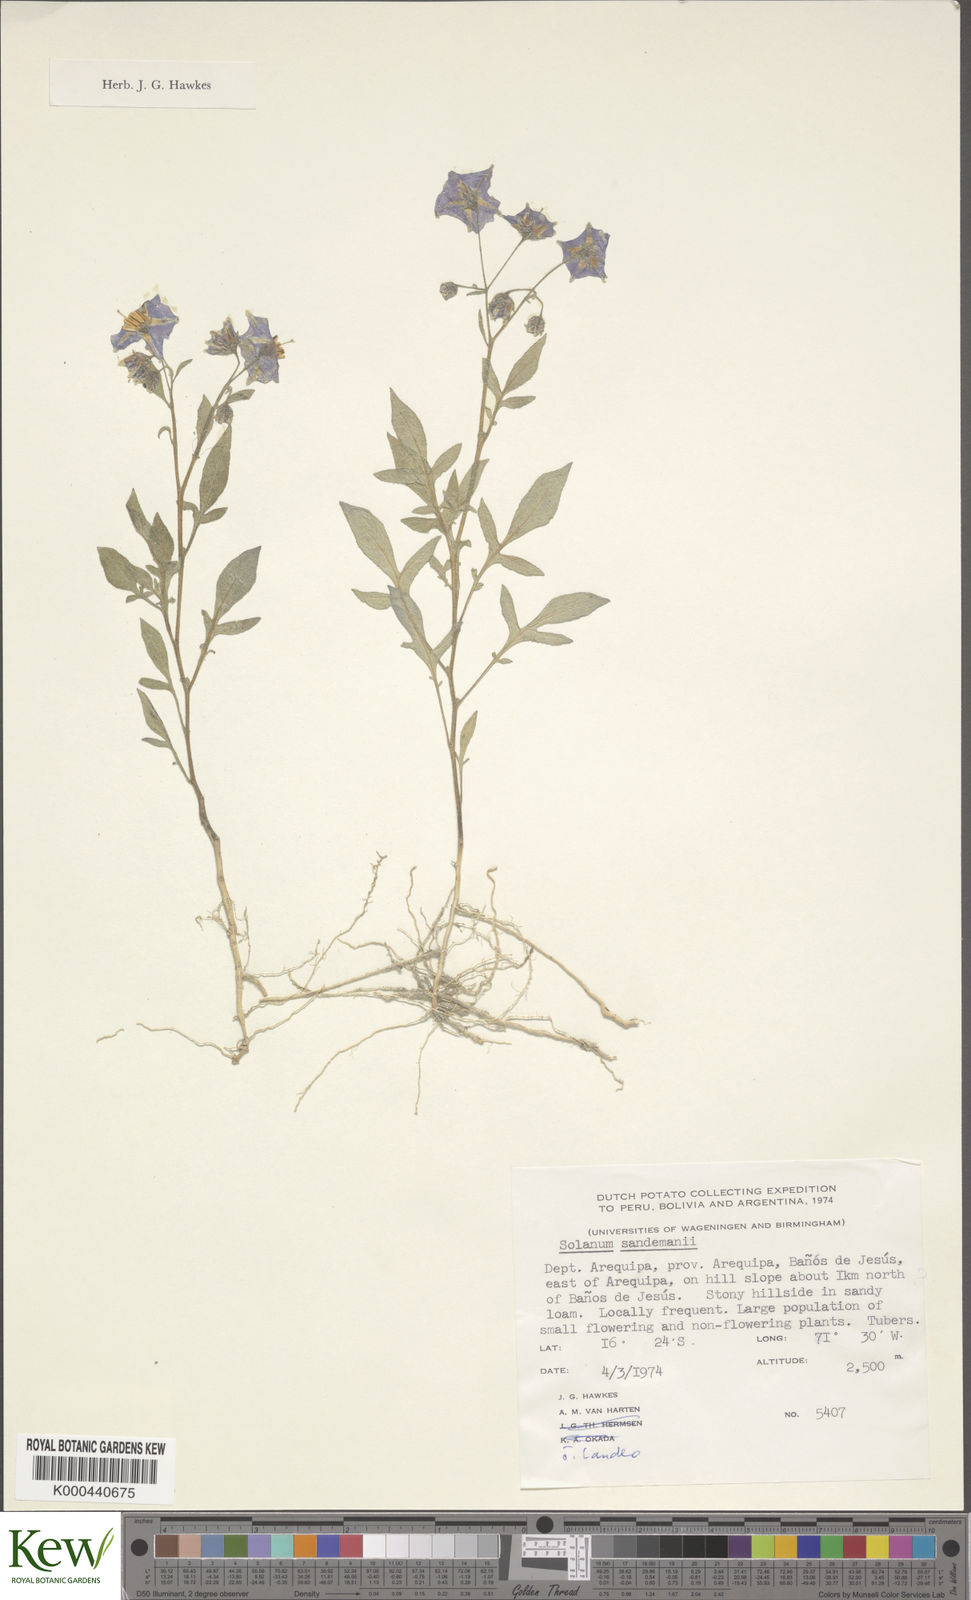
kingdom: Plantae
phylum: Tracheophyta
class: Magnoliopsida
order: Solanales
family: Solanaceae
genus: Solanum
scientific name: Solanum medians
